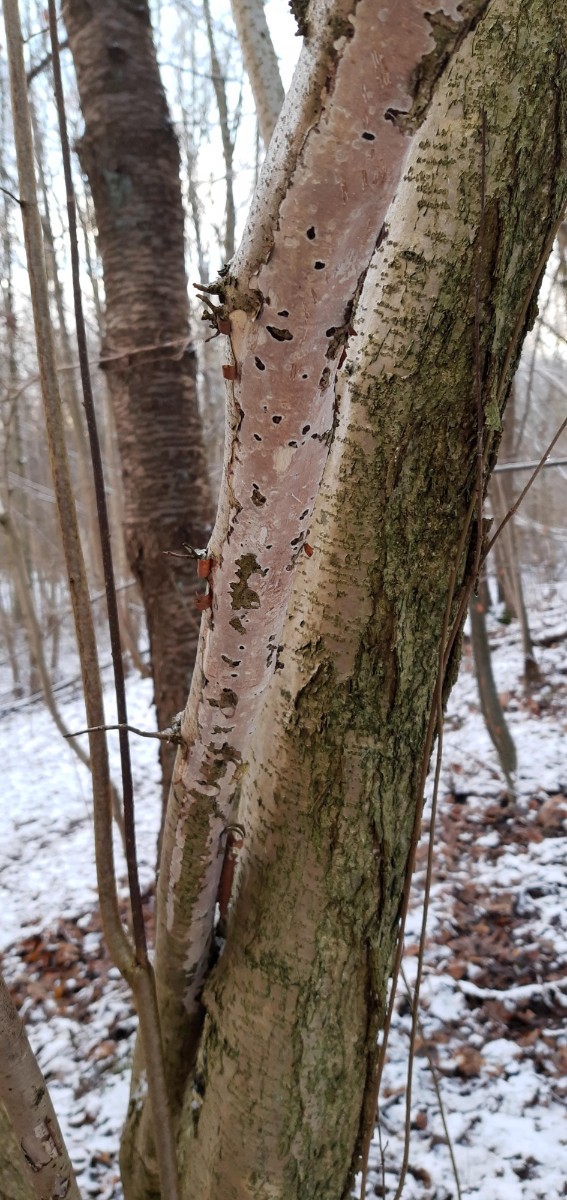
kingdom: Fungi
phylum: Basidiomycota
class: Agaricomycetes
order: Corticiales
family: Vuilleminiaceae
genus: Vuilleminia
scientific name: Vuilleminia coryli
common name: hassel-barksprænger
